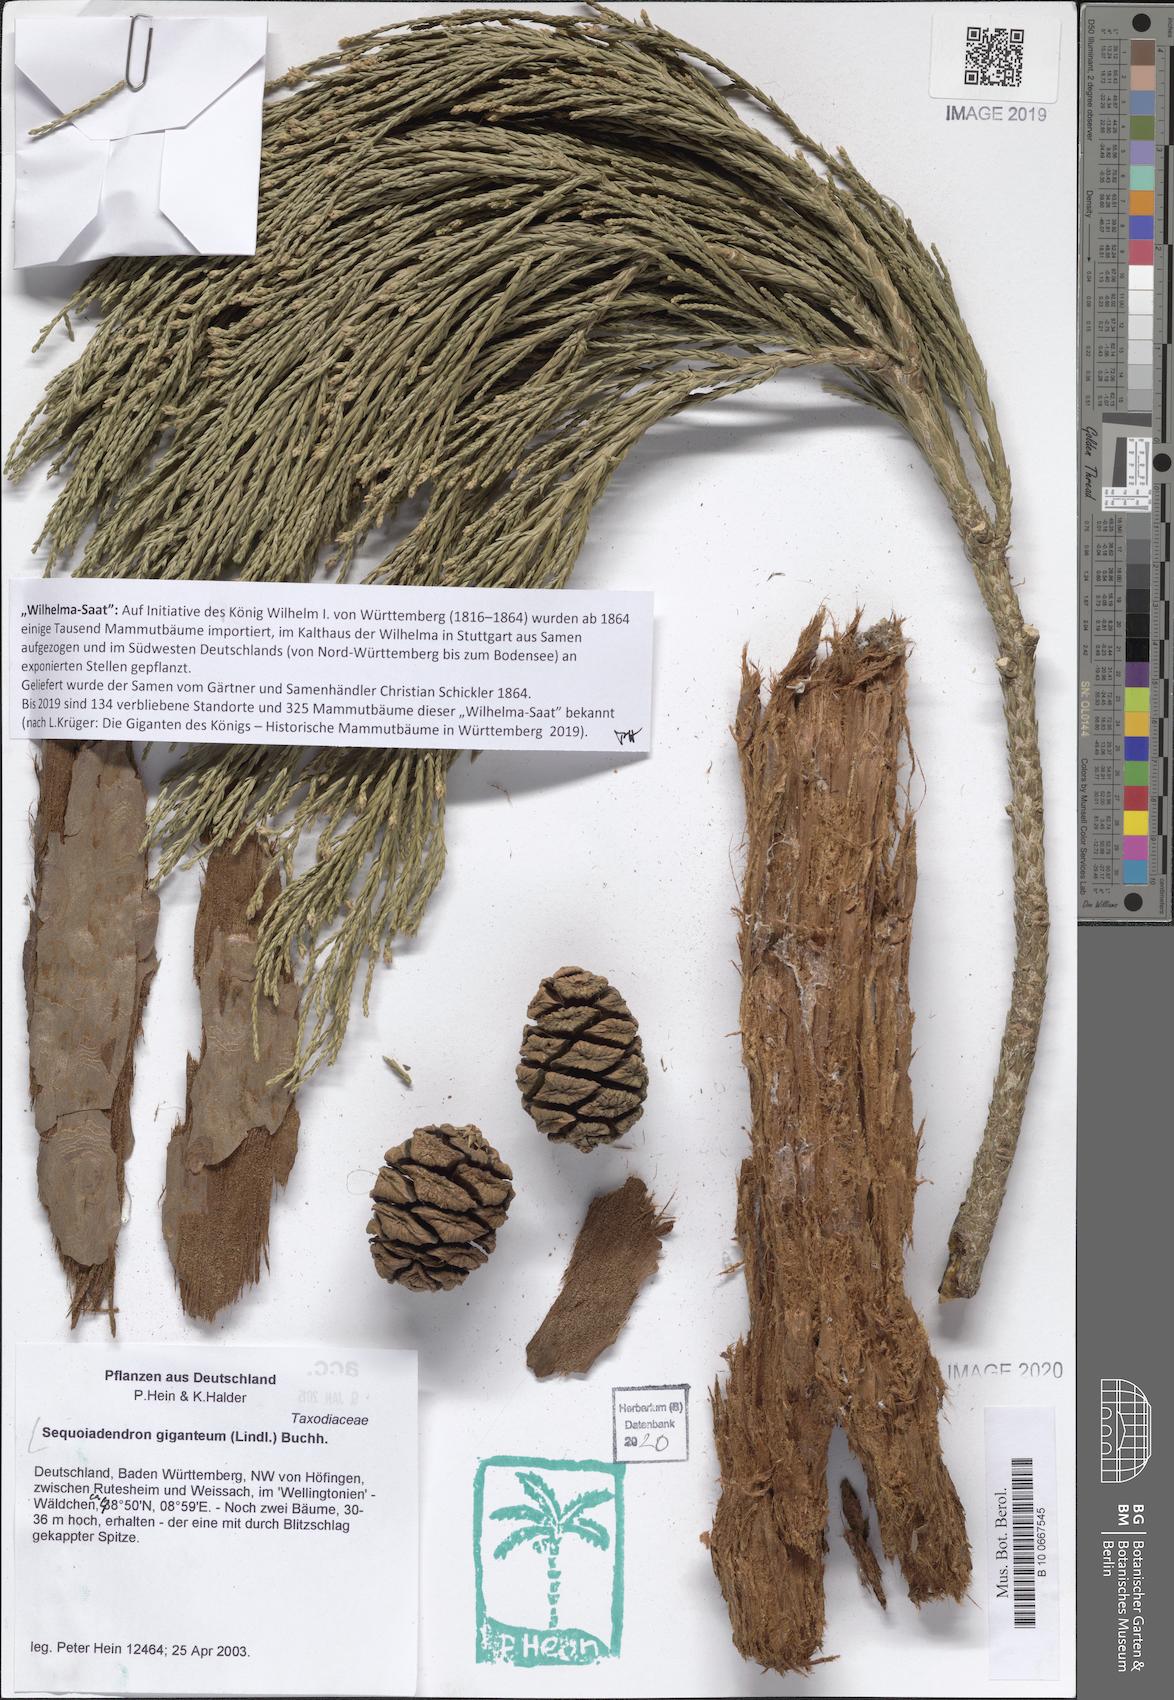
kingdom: Plantae
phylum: Tracheophyta
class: Pinopsida
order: Pinales
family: Cupressaceae
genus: Sequoiadendron
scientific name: Sequoiadendron giganteum
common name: Wellingtonia
